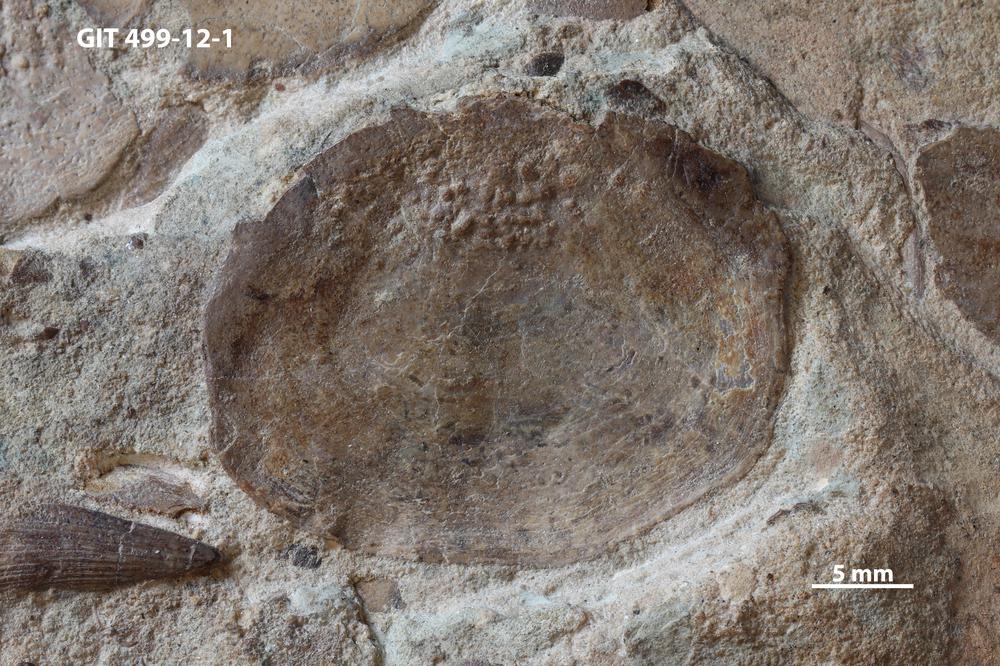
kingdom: Animalia
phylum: Chordata
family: Holoptychiidae
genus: Glyptolepis
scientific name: Glyptolepis
